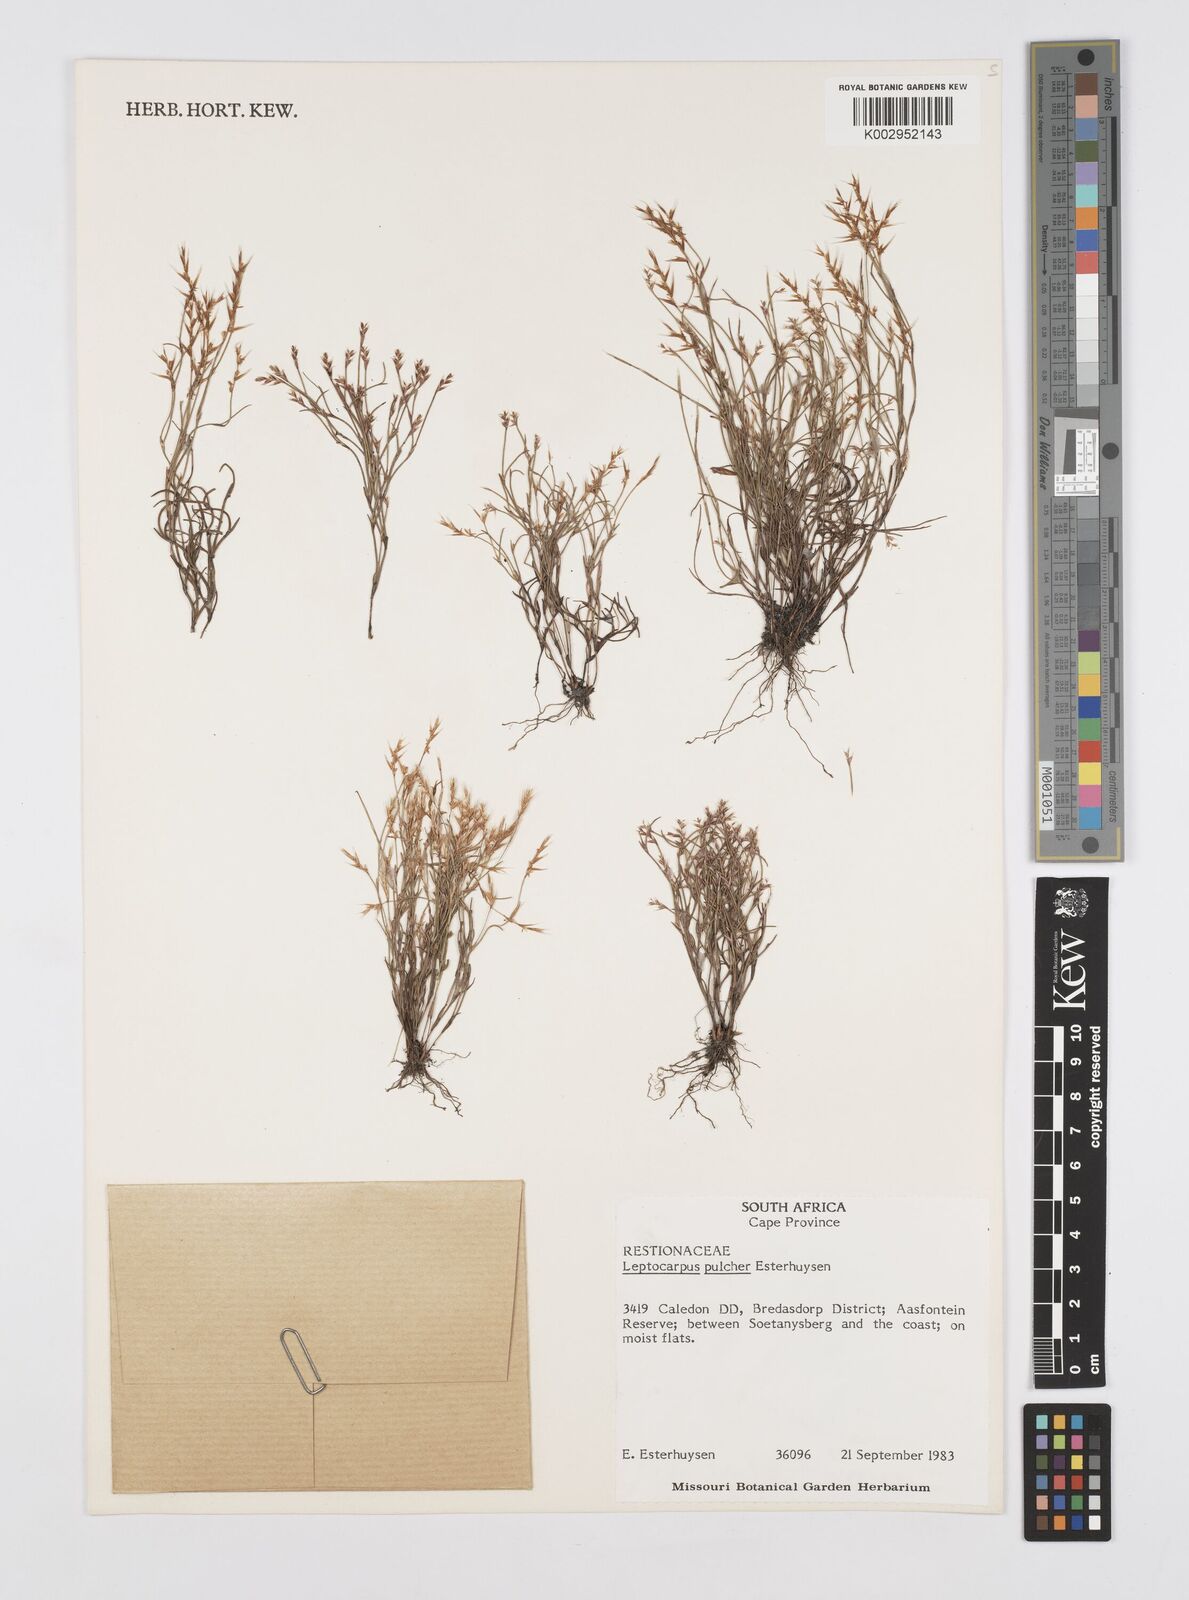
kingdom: Plantae
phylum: Tracheophyta
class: Liliopsida
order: Poales
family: Restionaceae
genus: Restio
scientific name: Restio pulcher
